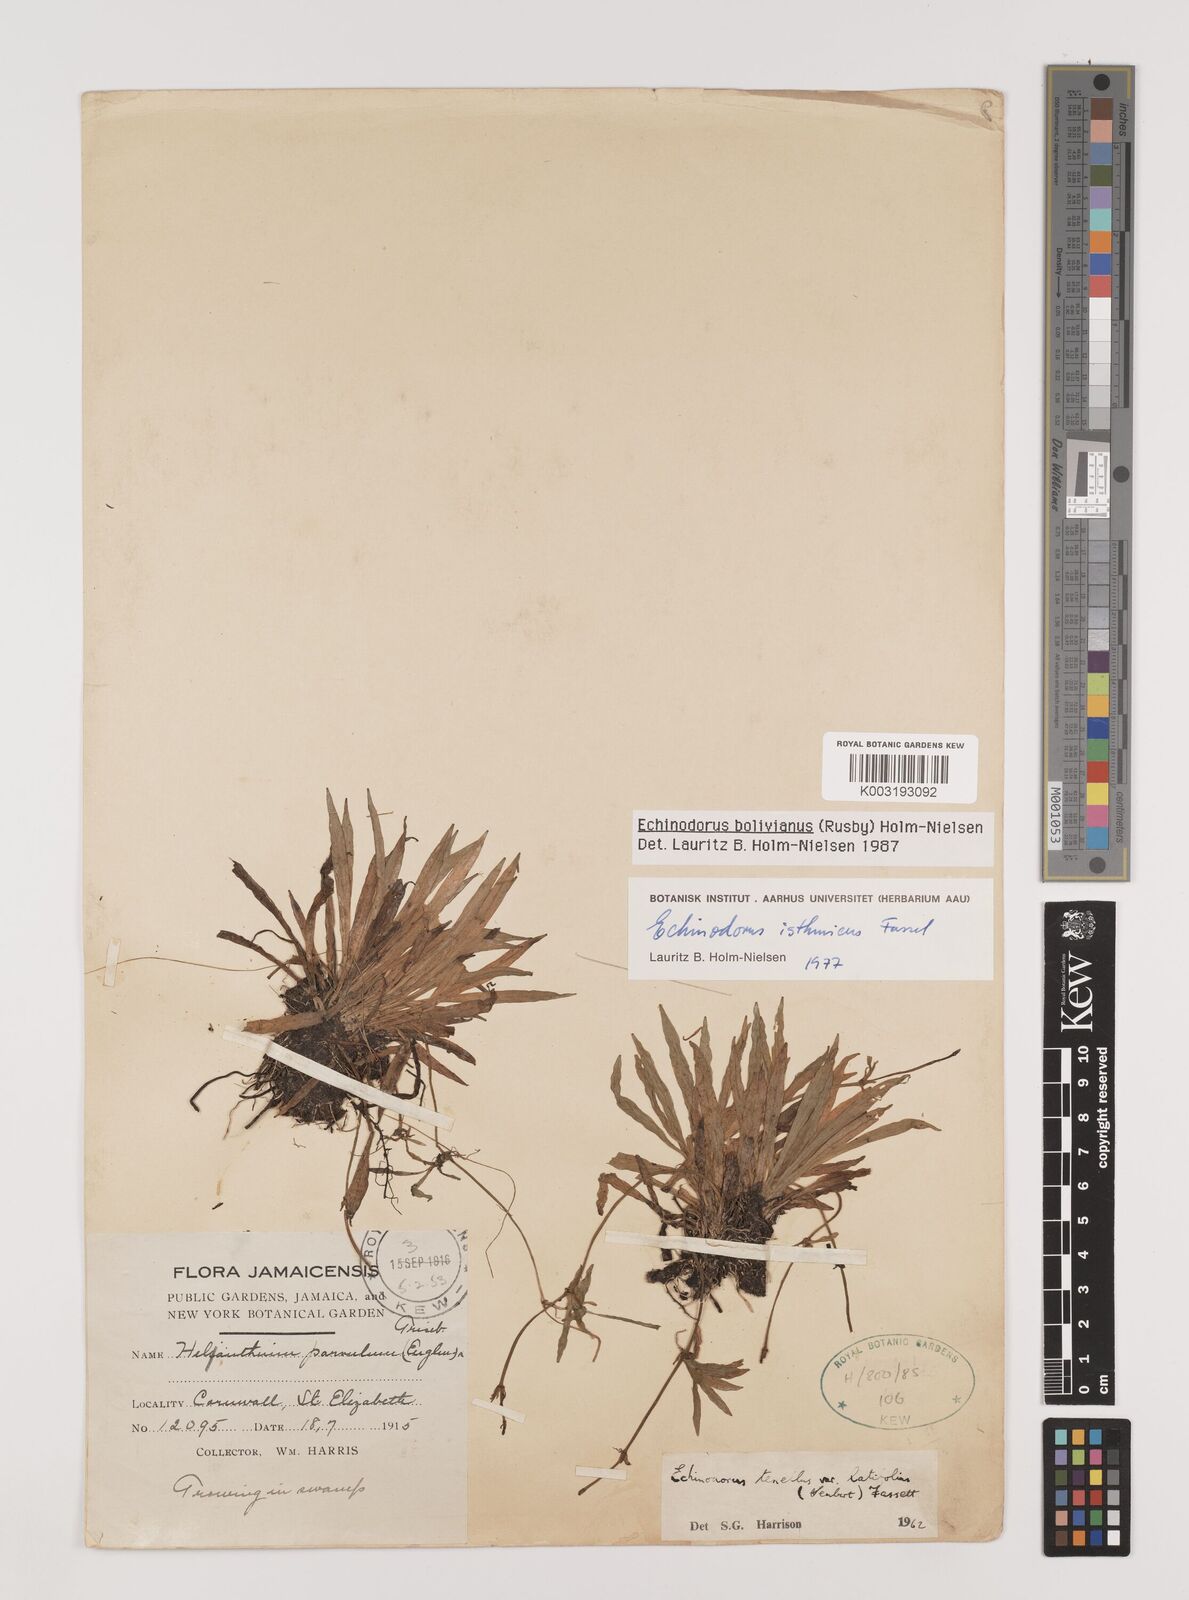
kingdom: Plantae
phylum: Tracheophyta
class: Liliopsida
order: Alismatales
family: Alismataceae
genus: Helanthium
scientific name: Helanthium bolivianum
